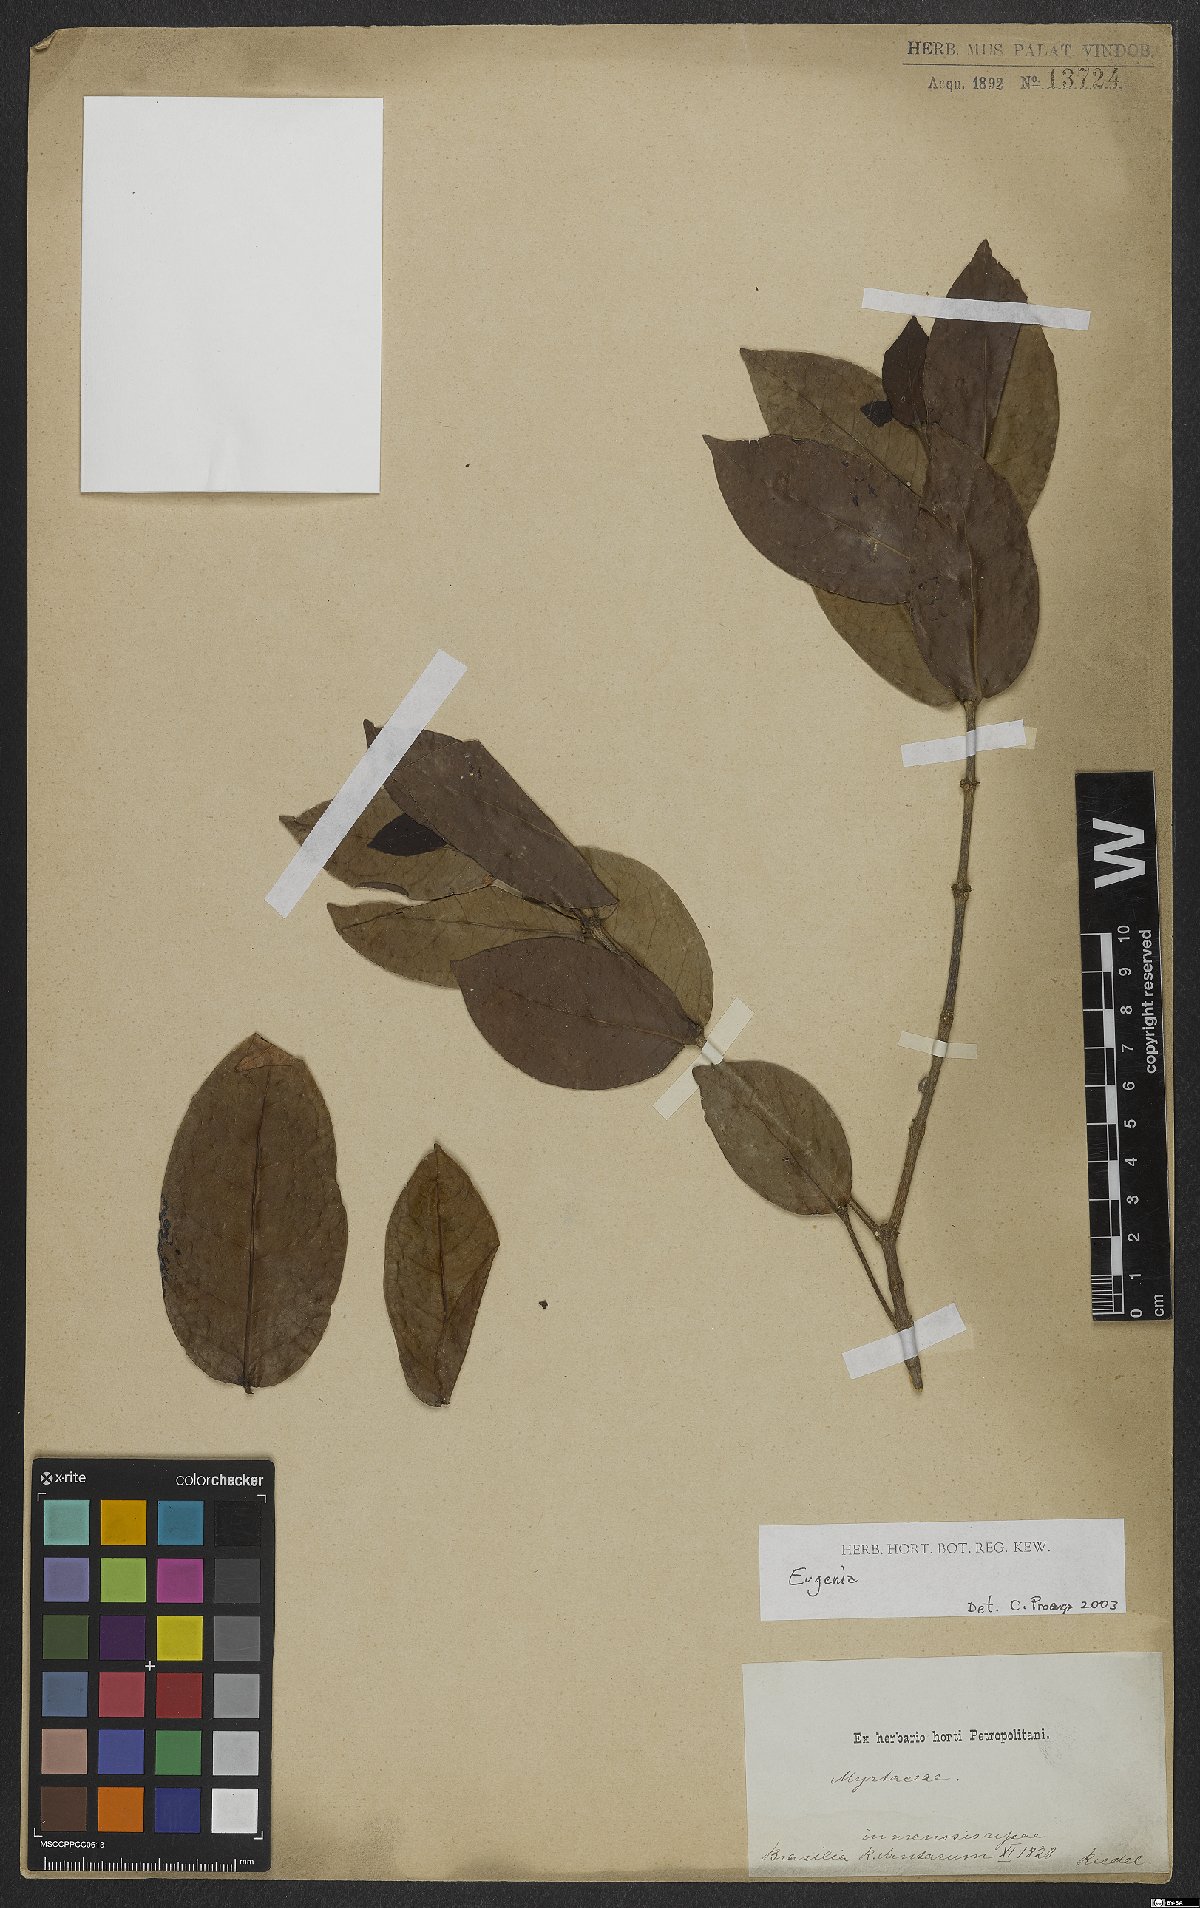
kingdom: Plantae
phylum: Tracheophyta
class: Magnoliopsida
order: Myrtales
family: Myrtaceae
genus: Eugenia
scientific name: Eugenia
